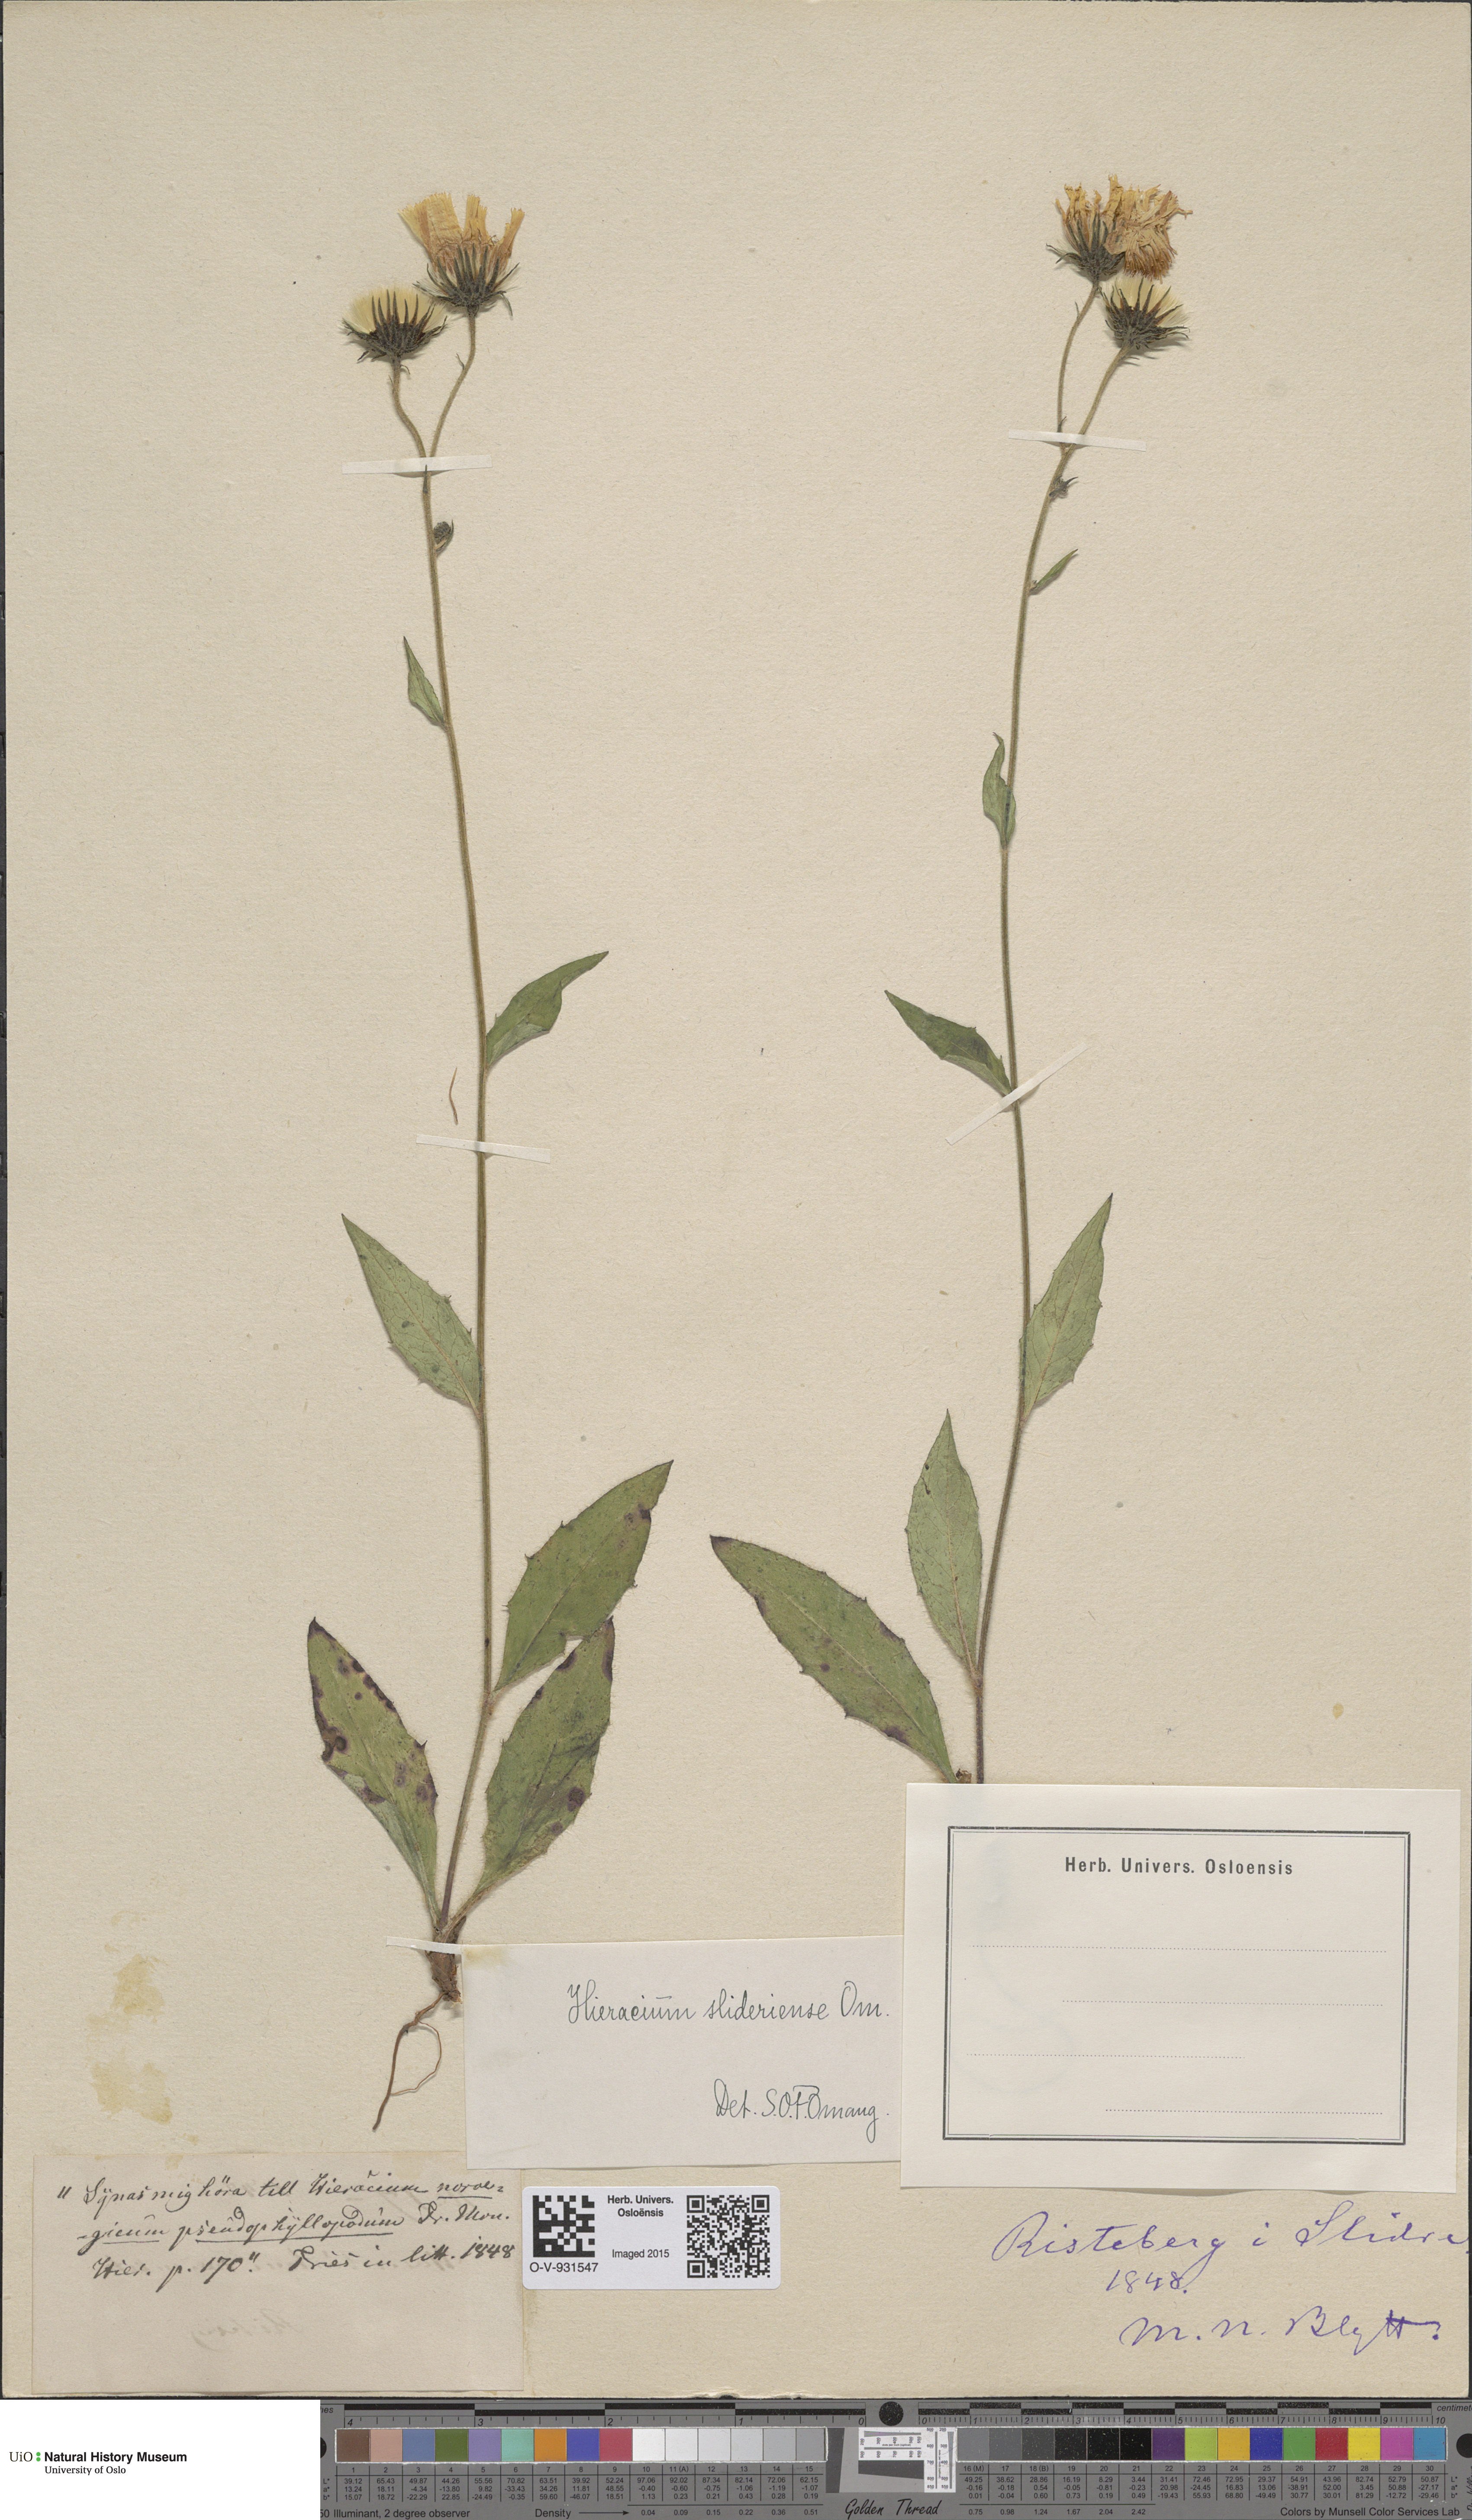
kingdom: Plantae
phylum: Tracheophyta
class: Magnoliopsida
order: Asterales
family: Asteraceae
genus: Hieracium
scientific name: Hieracium
